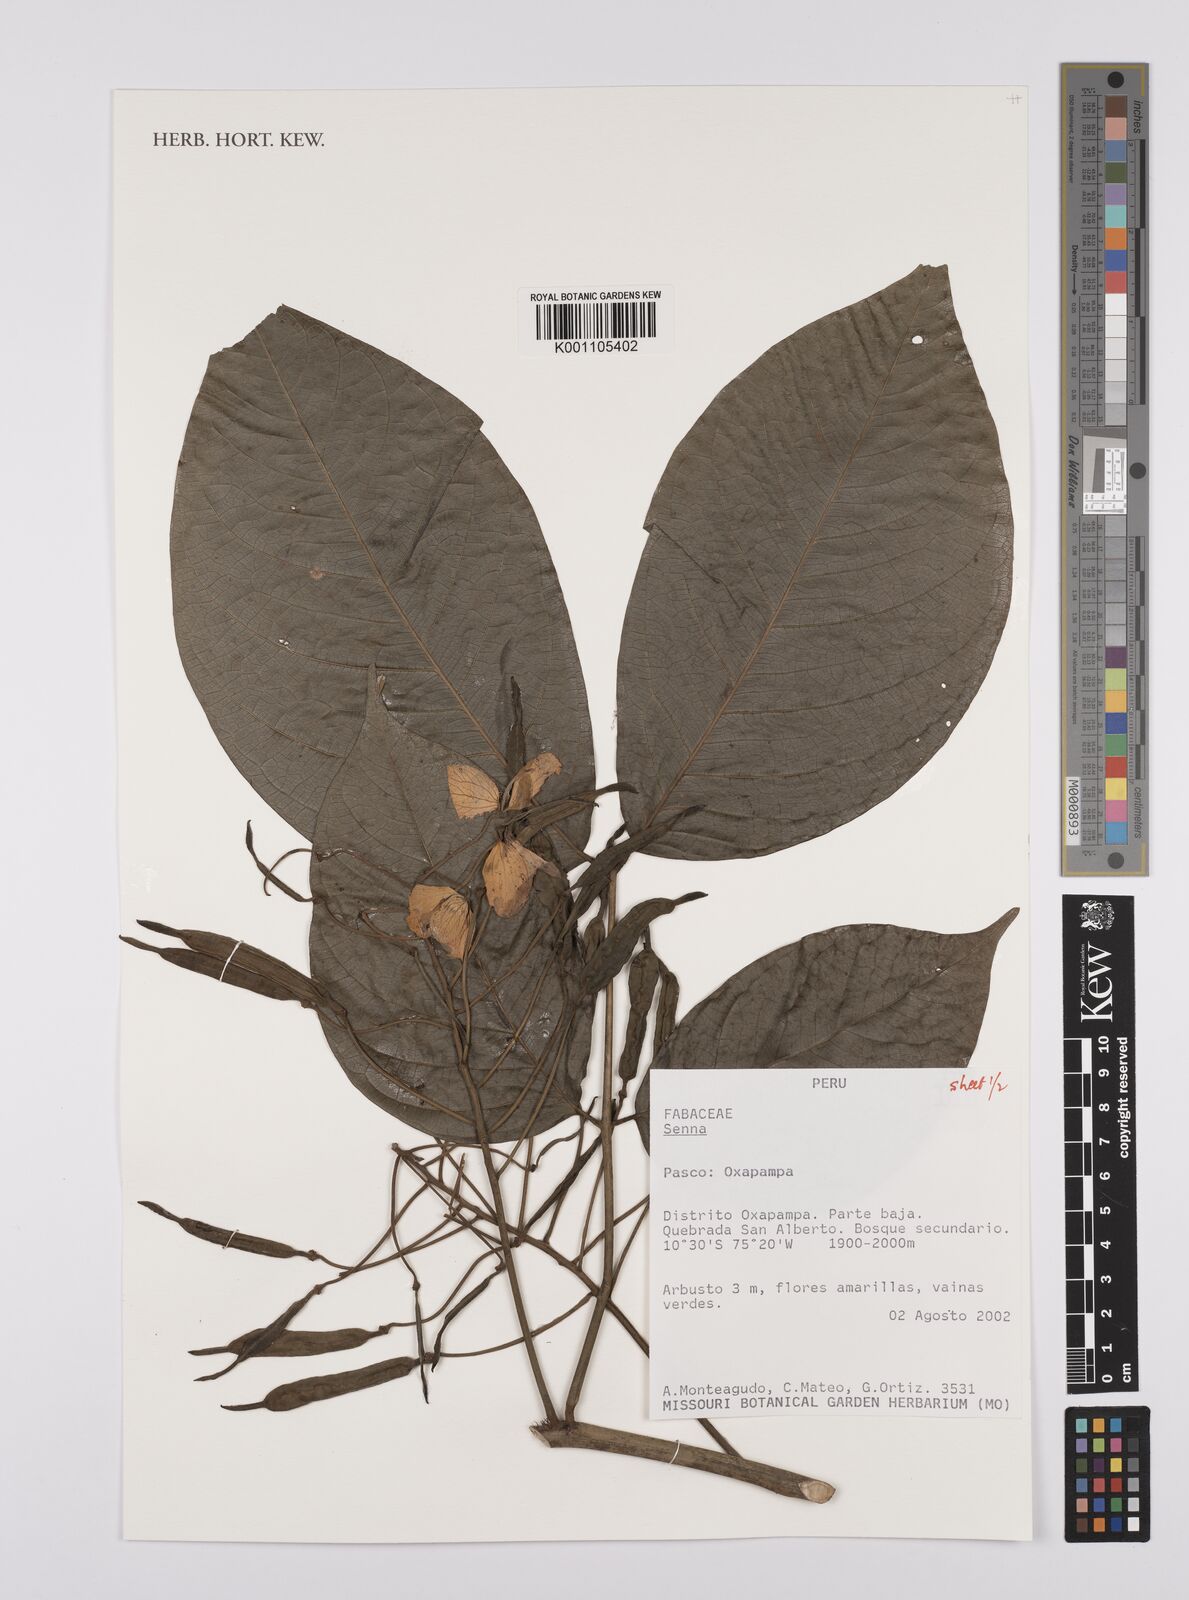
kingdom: Plantae
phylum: Tracheophyta
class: Magnoliopsida
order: Fabales
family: Fabaceae
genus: Senna
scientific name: Senna
